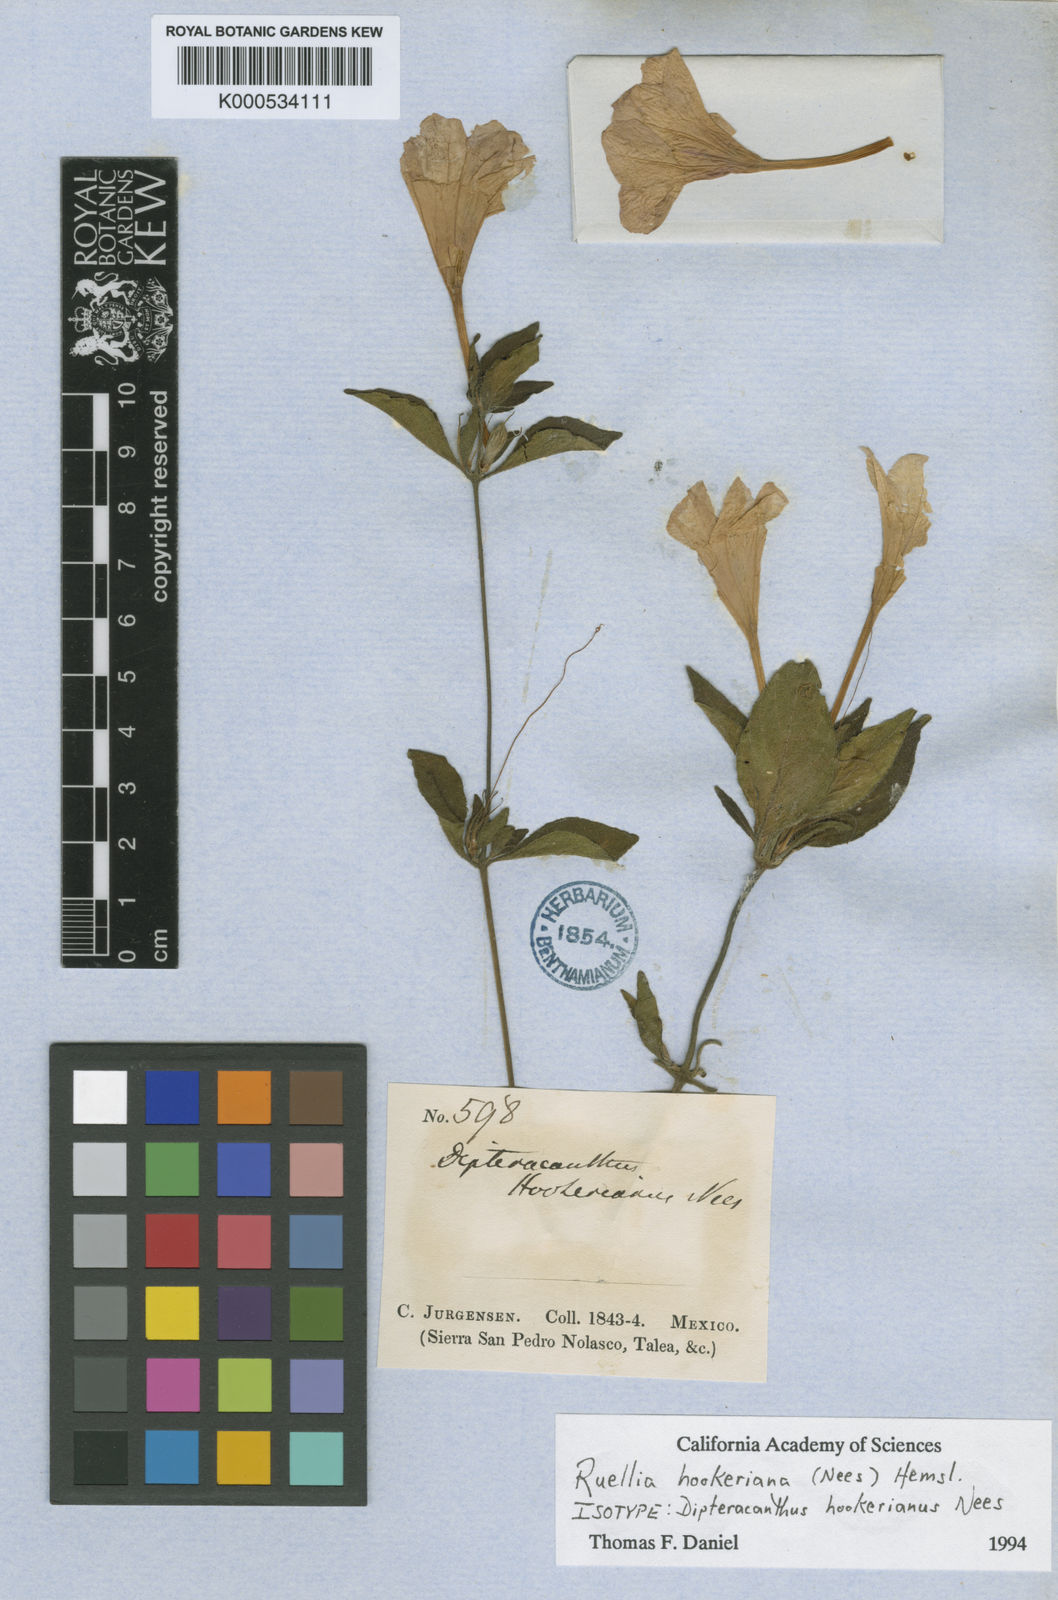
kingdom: Plantae
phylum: Tracheophyta
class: Magnoliopsida
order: Lamiales
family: Acanthaceae
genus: Ruellia
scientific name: Ruellia hookeriana
